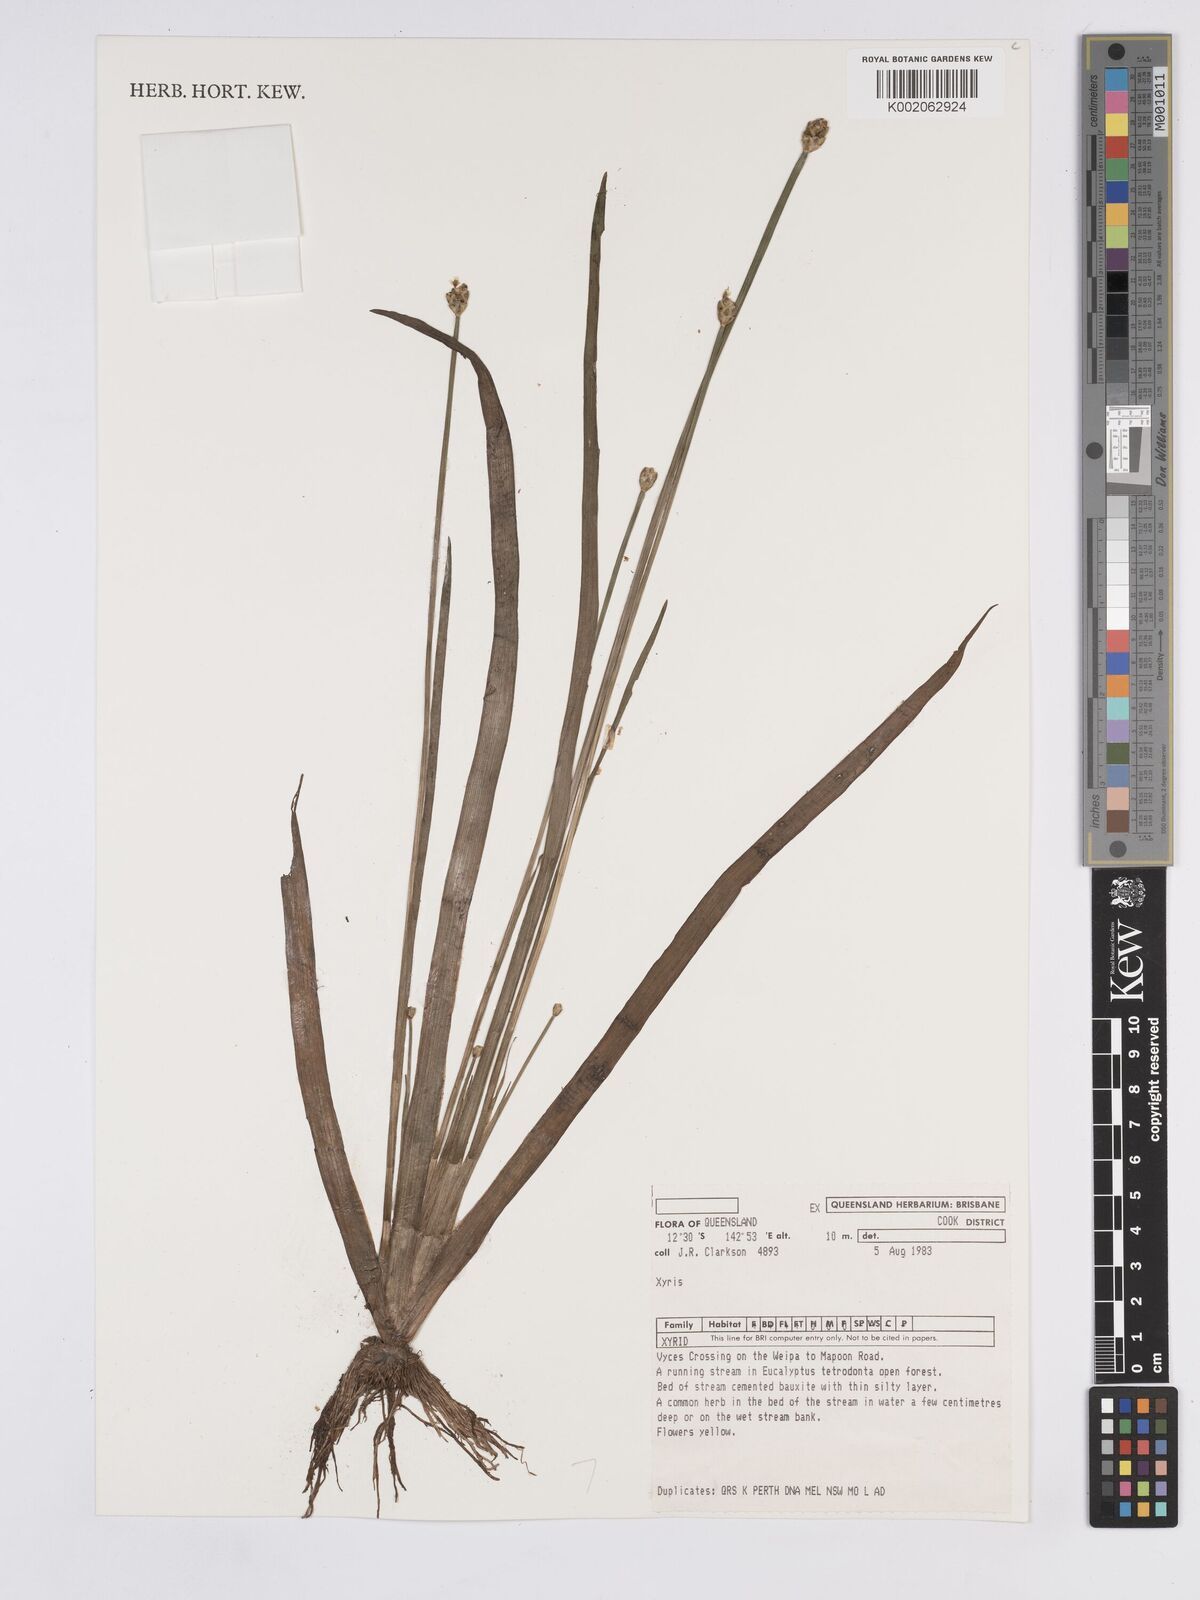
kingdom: Plantae
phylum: Tracheophyta
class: Liliopsida
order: Poales
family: Xyridaceae
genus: Xyris
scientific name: Xyris indica
